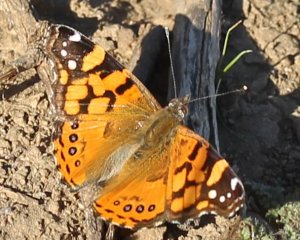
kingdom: Animalia
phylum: Arthropoda
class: Insecta
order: Lepidoptera
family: Nymphalidae
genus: Vanessa
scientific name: Vanessa annabella
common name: West Coast Lady
